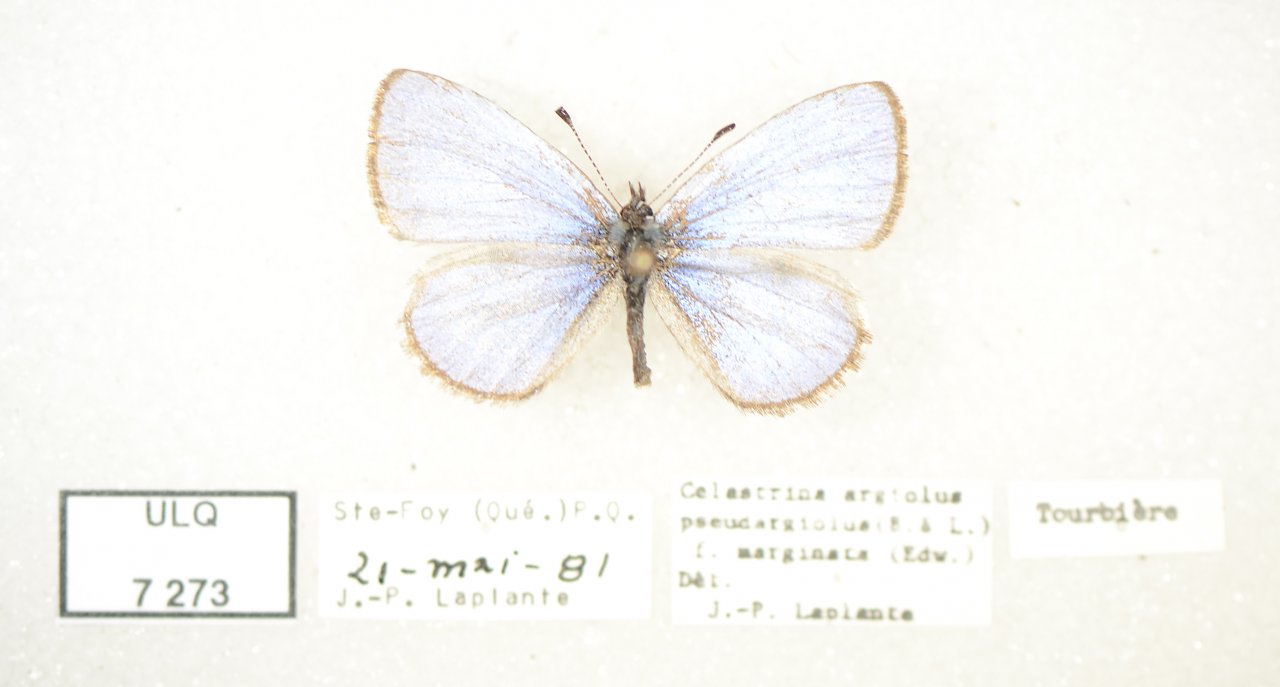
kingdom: Animalia
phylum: Arthropoda
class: Insecta
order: Lepidoptera
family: Lycaenidae
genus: Celastrina
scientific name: Celastrina lucia
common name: Northern Spring Azure
